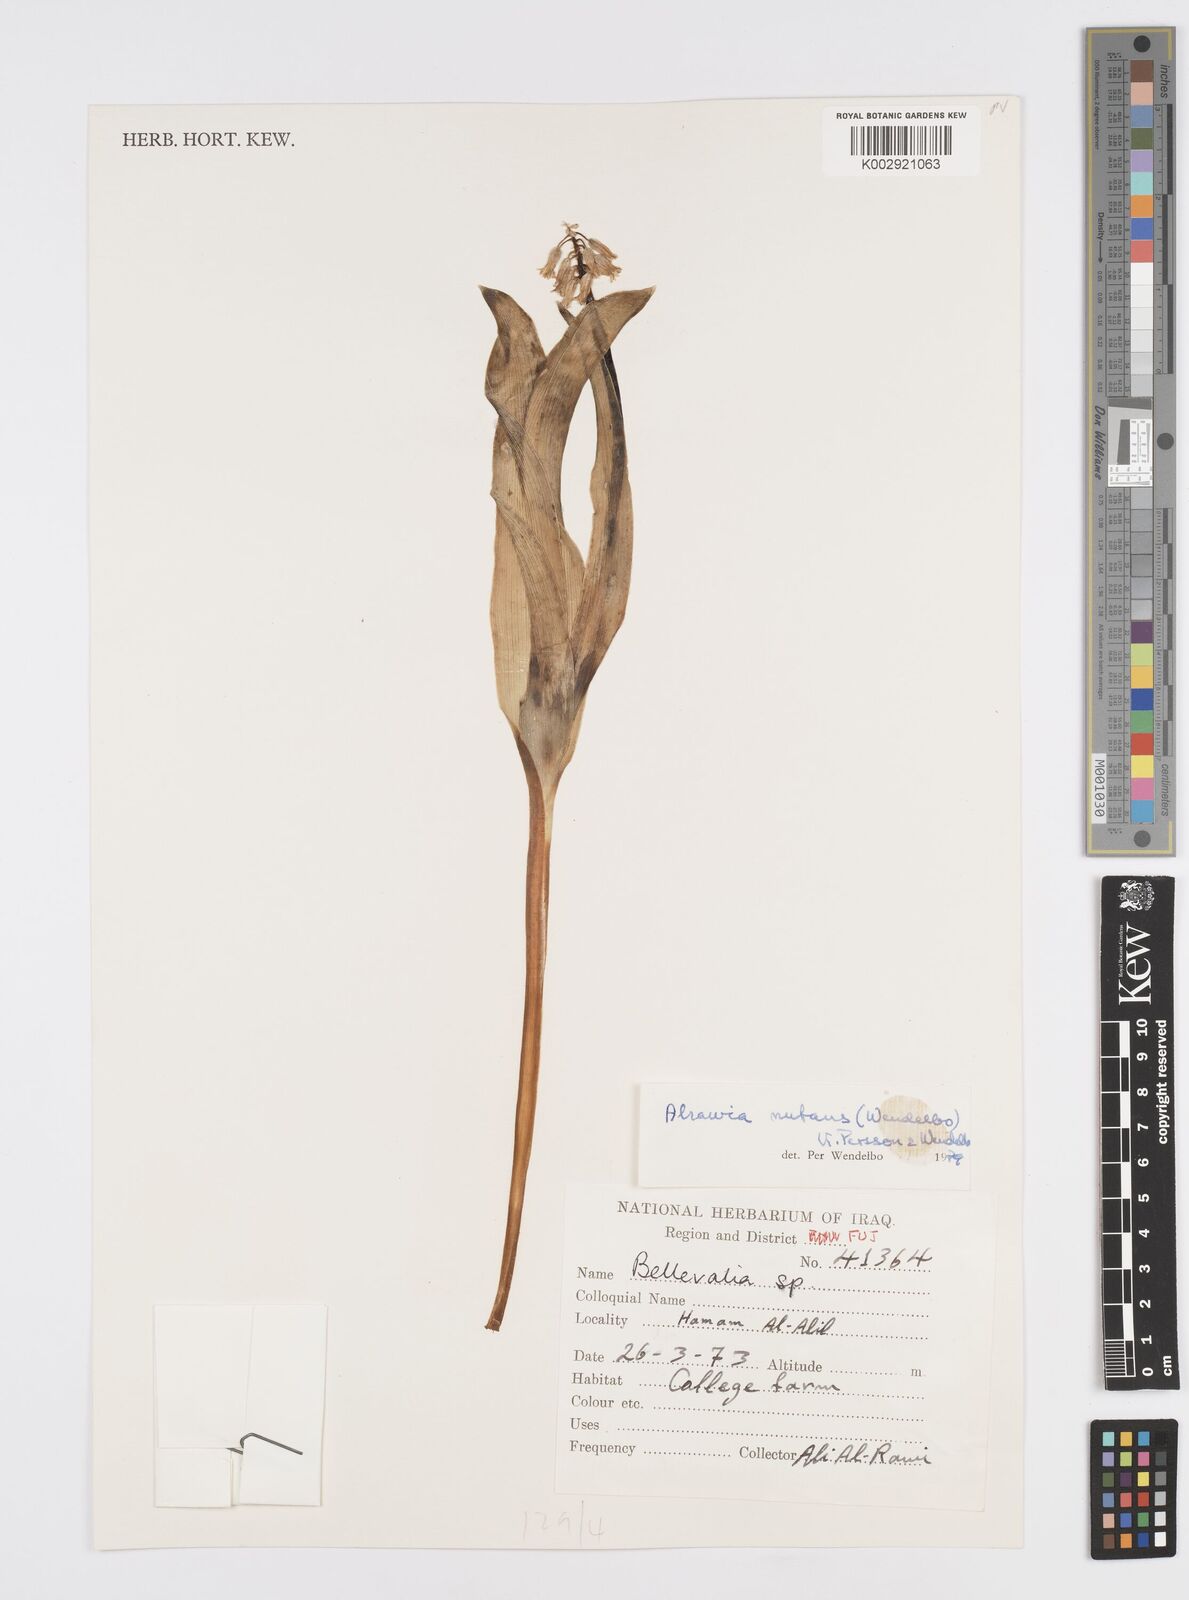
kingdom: Plantae
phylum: Tracheophyta
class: Liliopsida
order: Asparagales
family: Asparagaceae
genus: Alrawia
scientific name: Alrawia nutans
